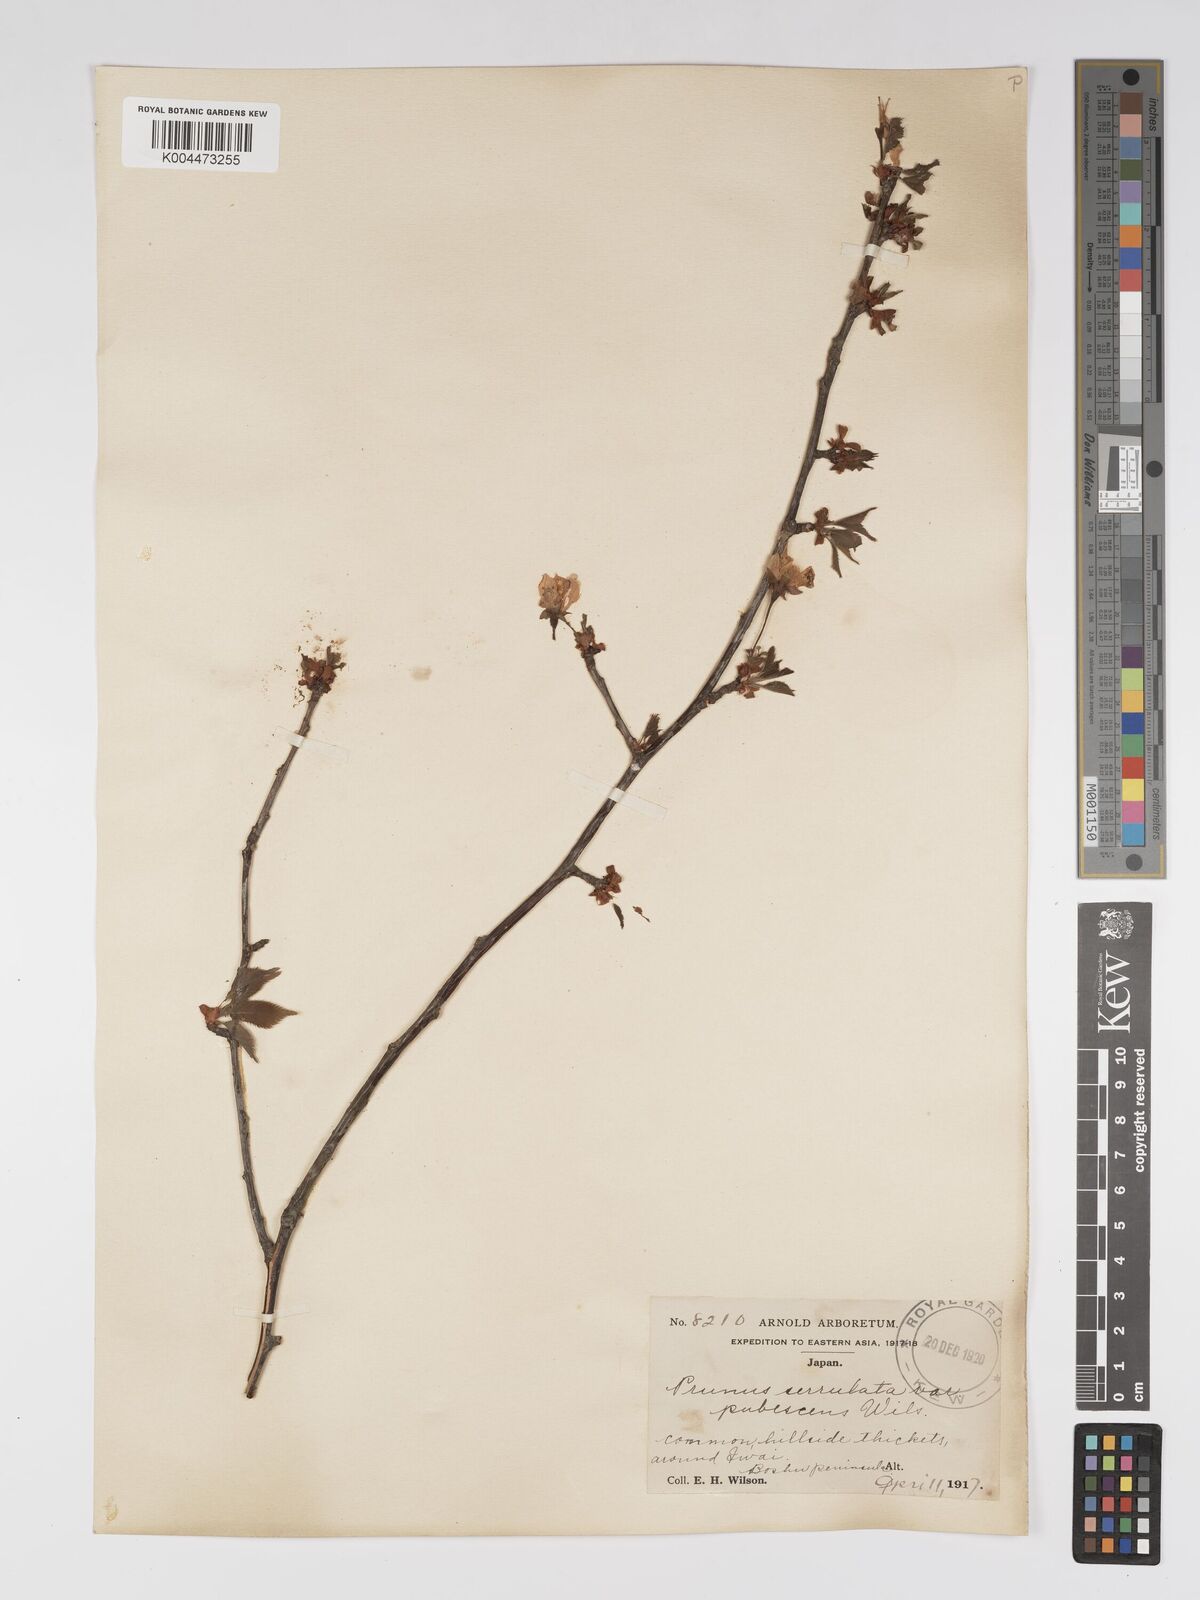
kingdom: Plantae
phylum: Tracheophyta
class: Magnoliopsida
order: Rosales
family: Rosaceae
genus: Prunus
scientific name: Prunus serrulata
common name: Japanese cherry
